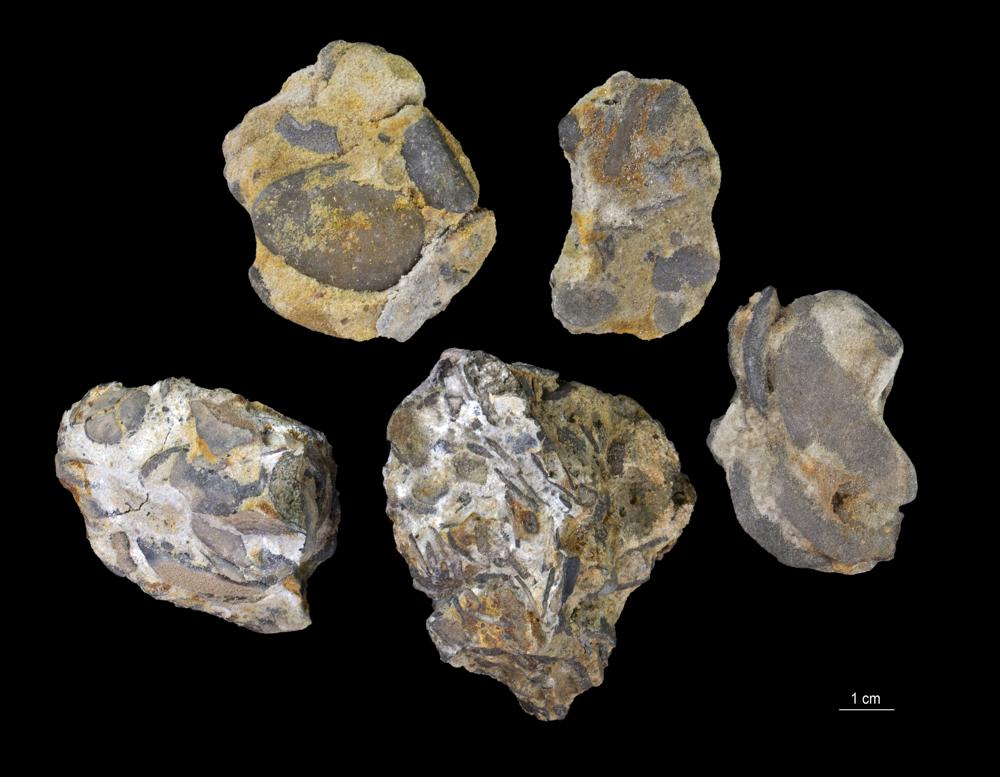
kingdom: Animalia
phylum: Brachiopoda
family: Paterinidae
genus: Mickwitzia
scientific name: Mickwitzia
